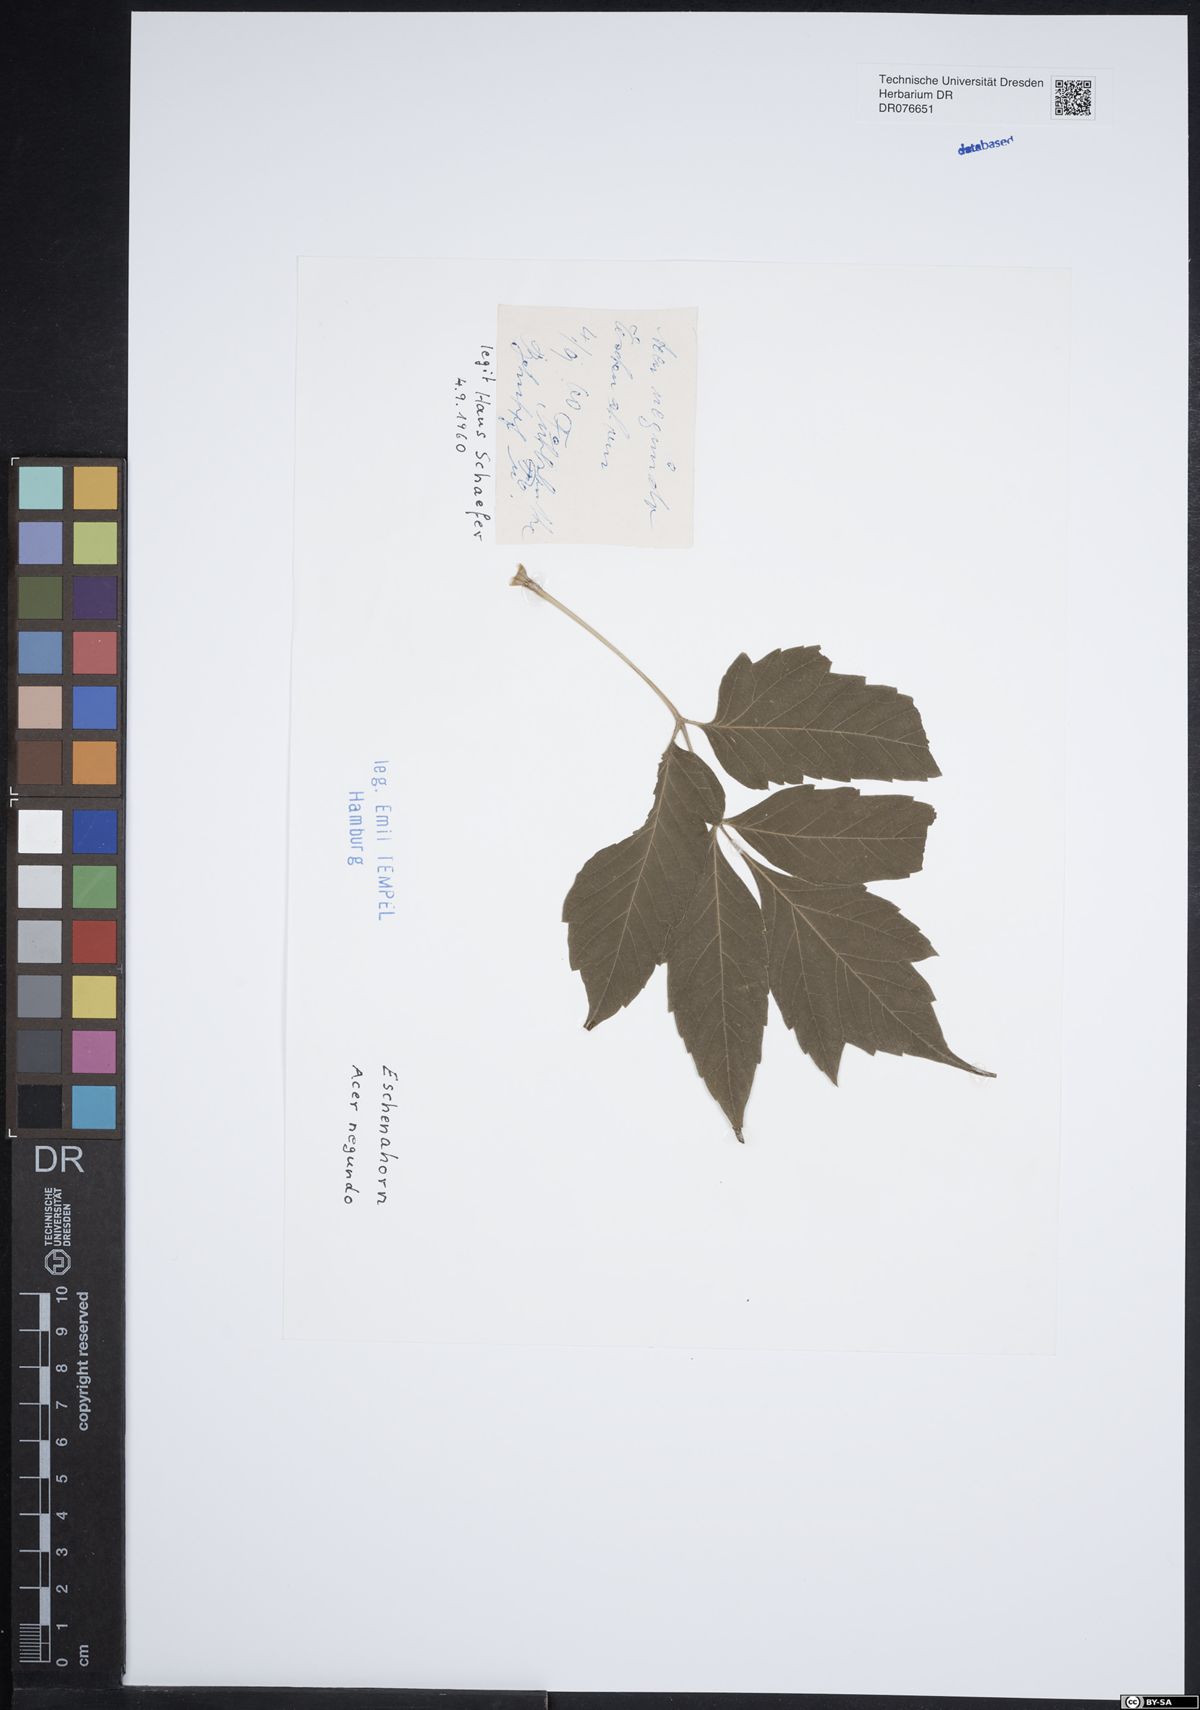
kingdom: Plantae
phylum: Tracheophyta
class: Magnoliopsida
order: Sapindales
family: Sapindaceae
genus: Acer
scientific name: Acer negundo
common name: Ashleaf maple
